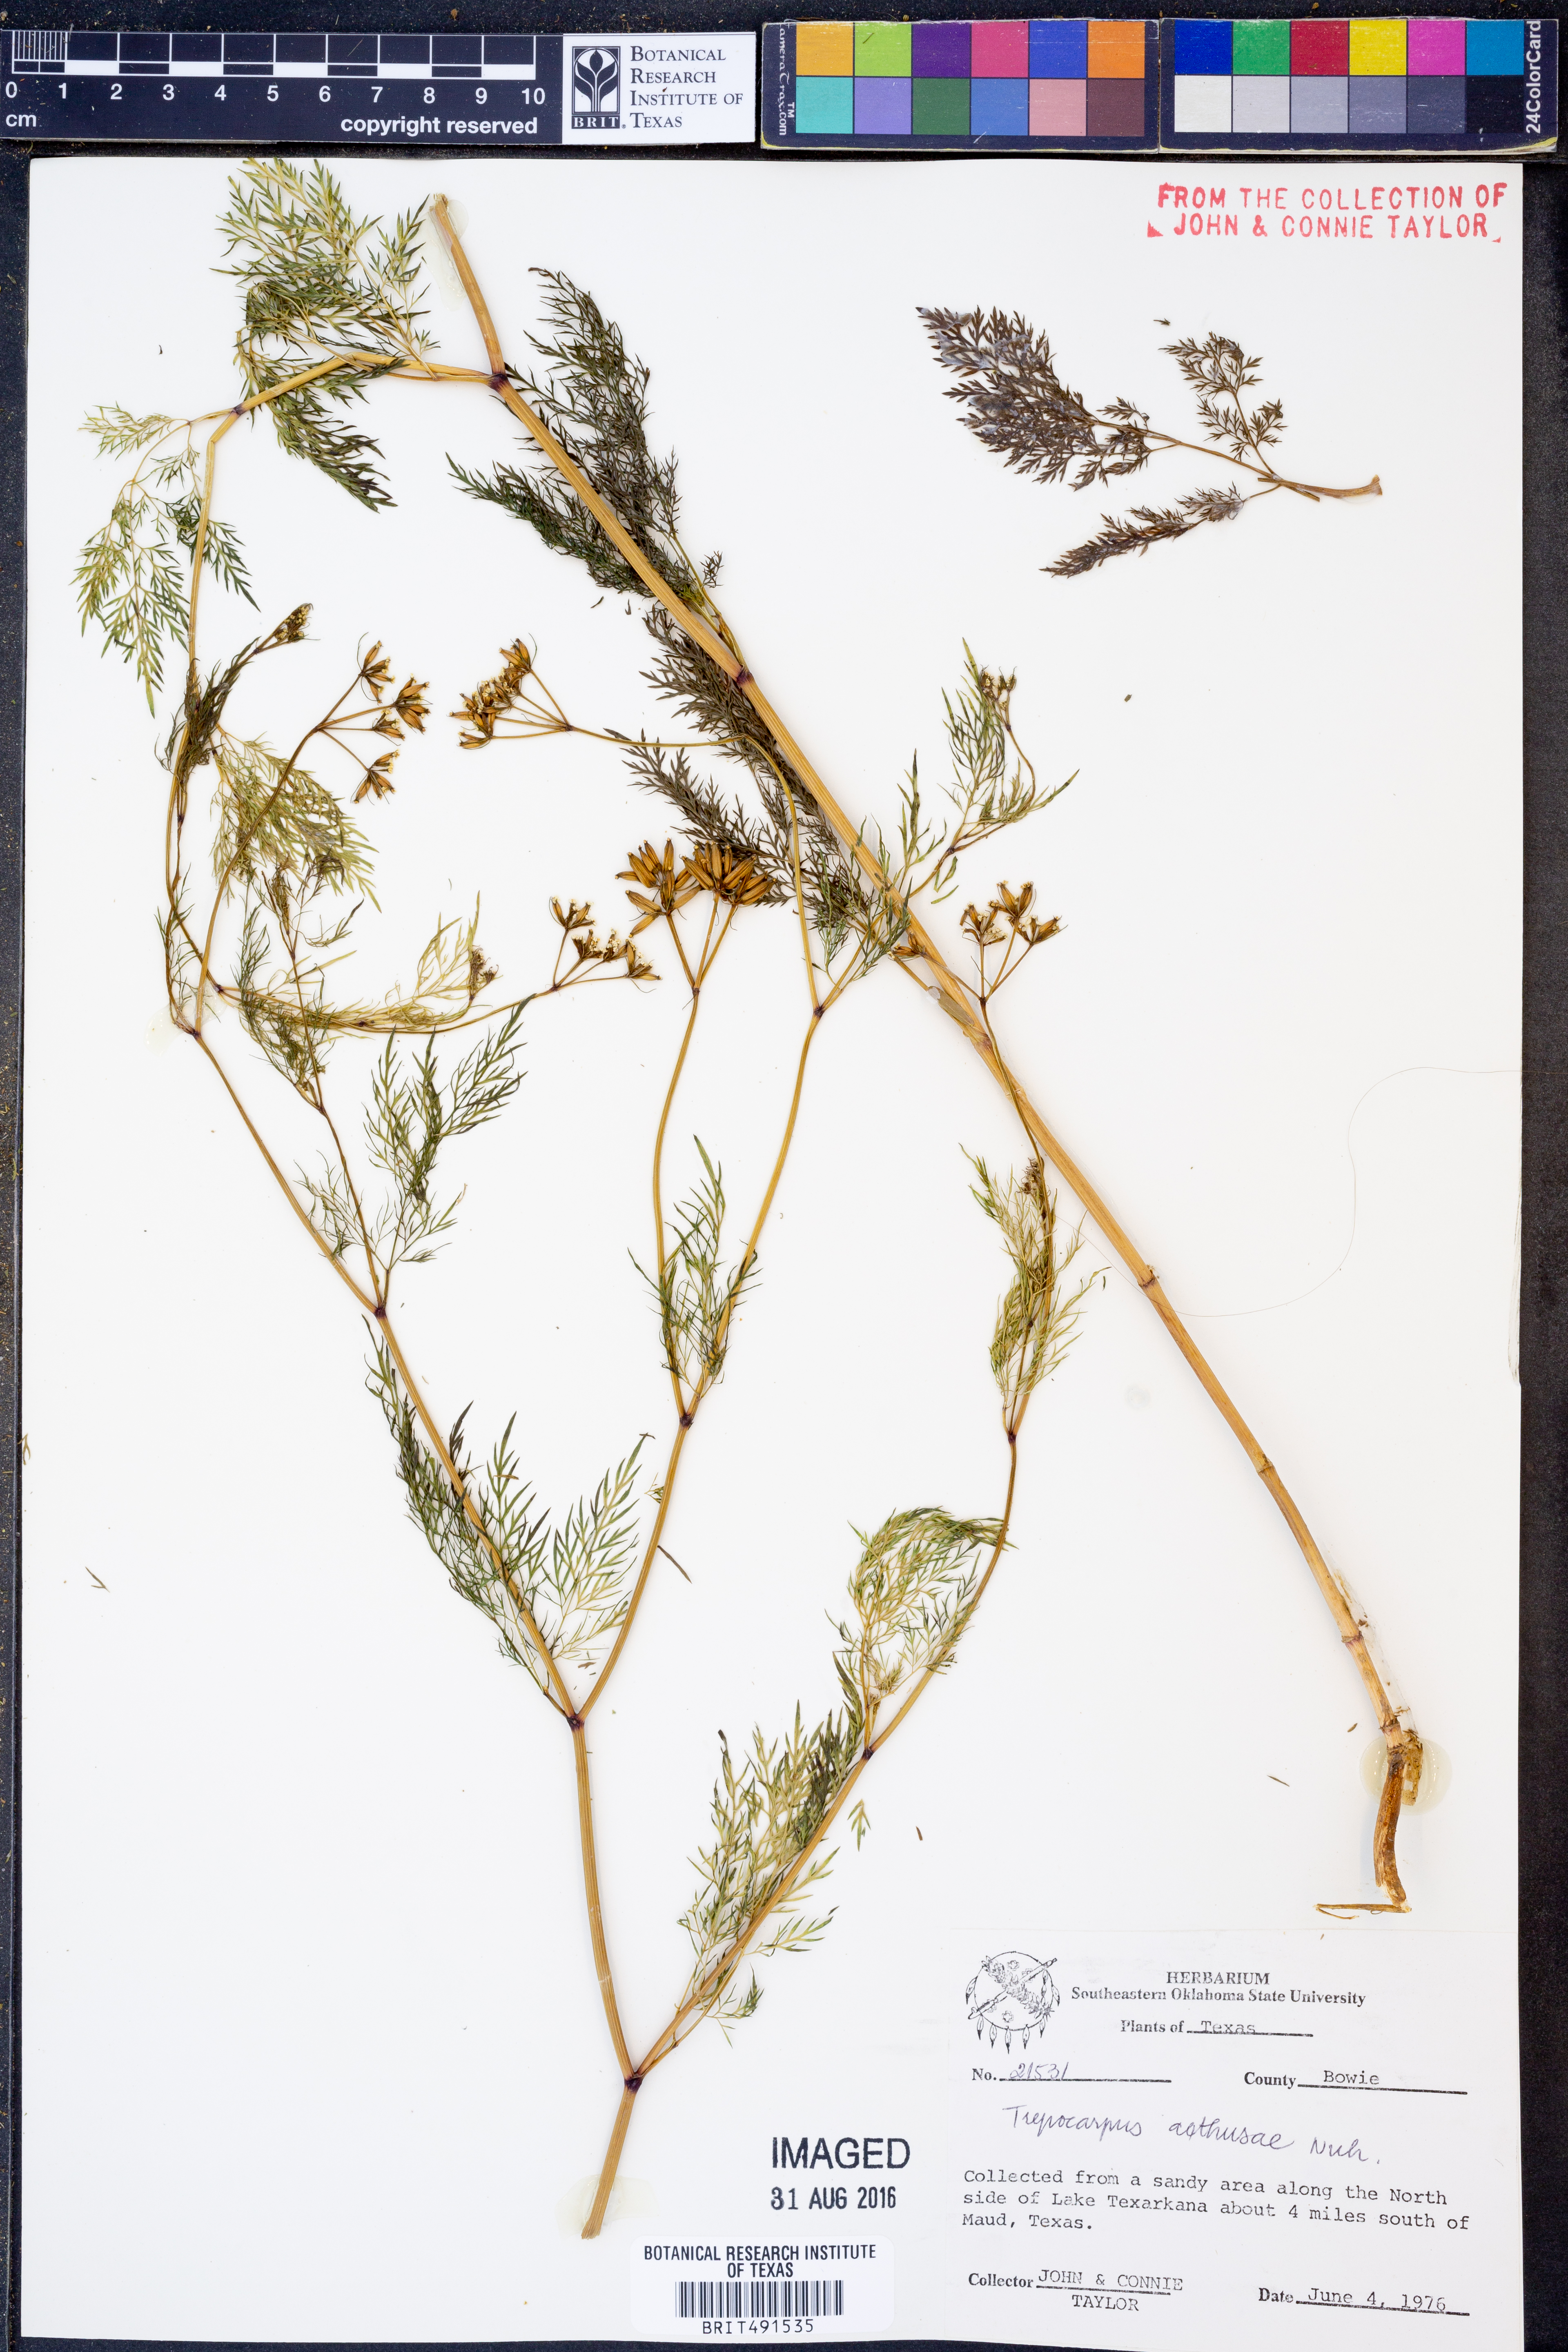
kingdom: Plantae
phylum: Tracheophyta
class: Magnoliopsida
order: Apiales
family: Apiaceae
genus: Trepocarpus
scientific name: Trepocarpus aethusae
